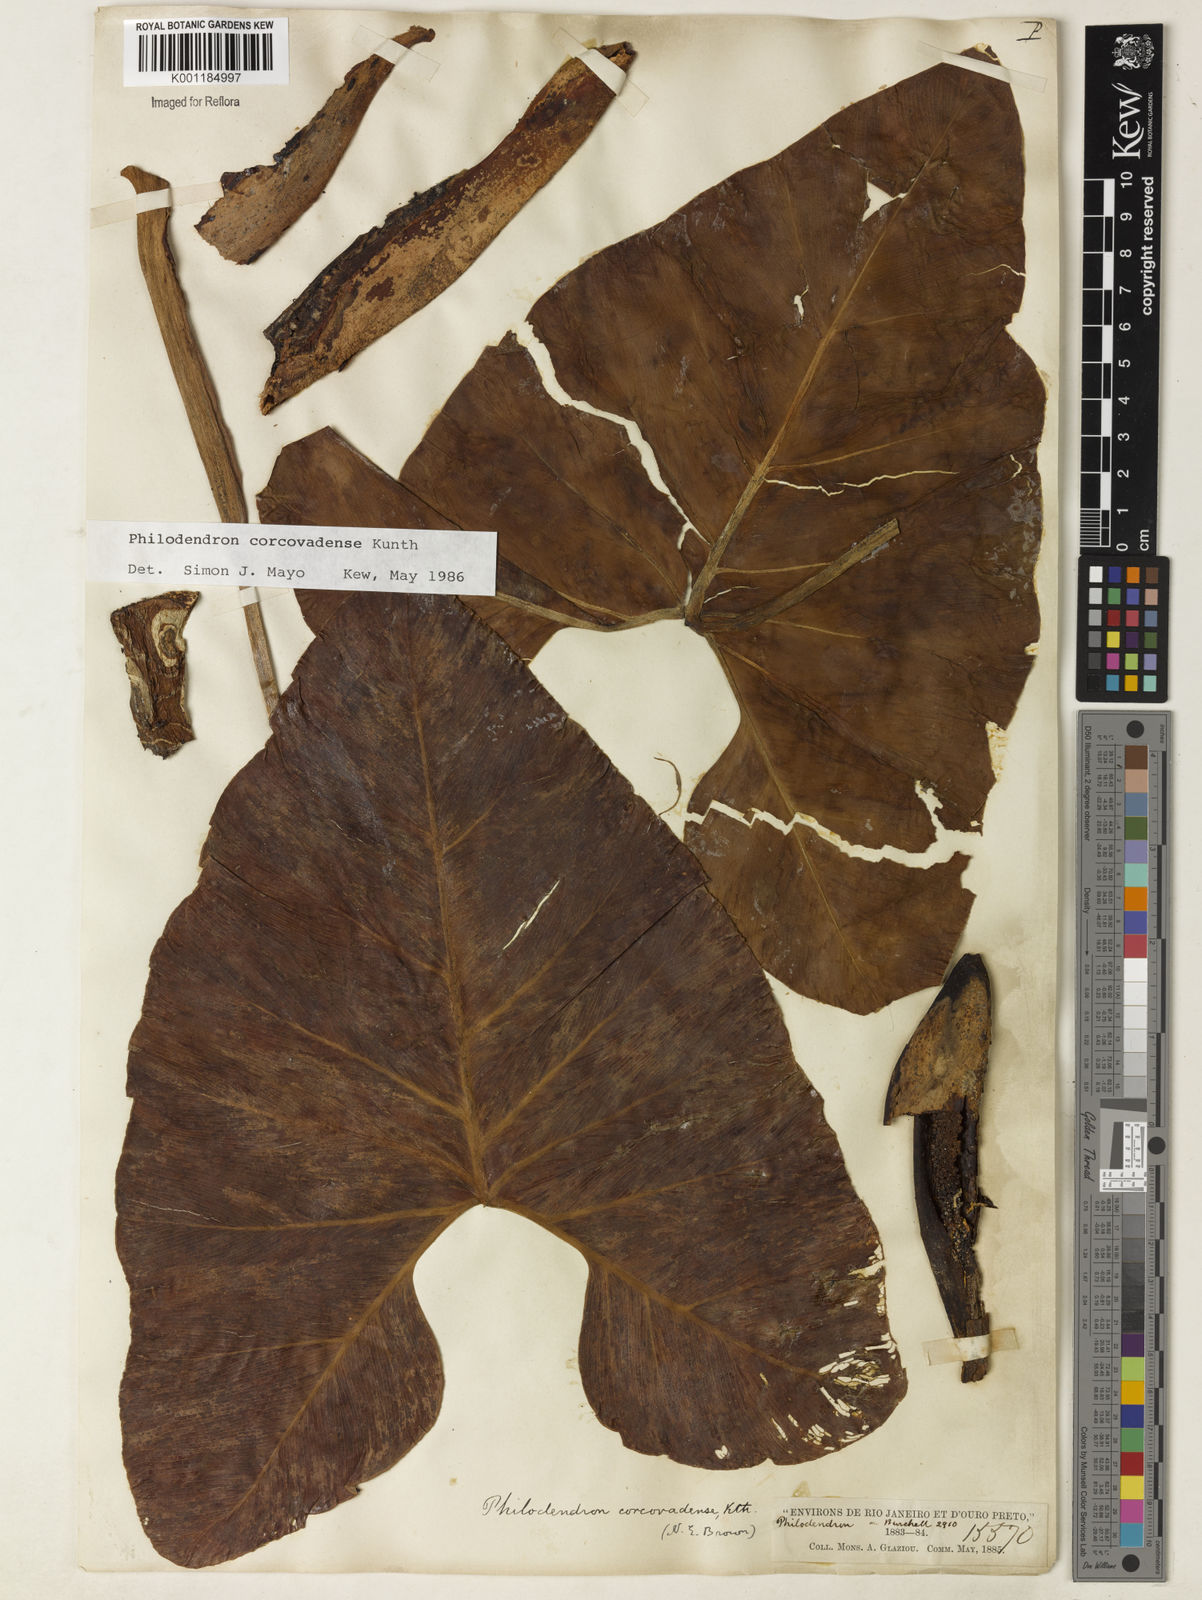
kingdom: Plantae
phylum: Tracheophyta
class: Liliopsida
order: Alismatales
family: Araceae
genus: Thaumatophyllum
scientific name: Thaumatophyllum corcovadense
